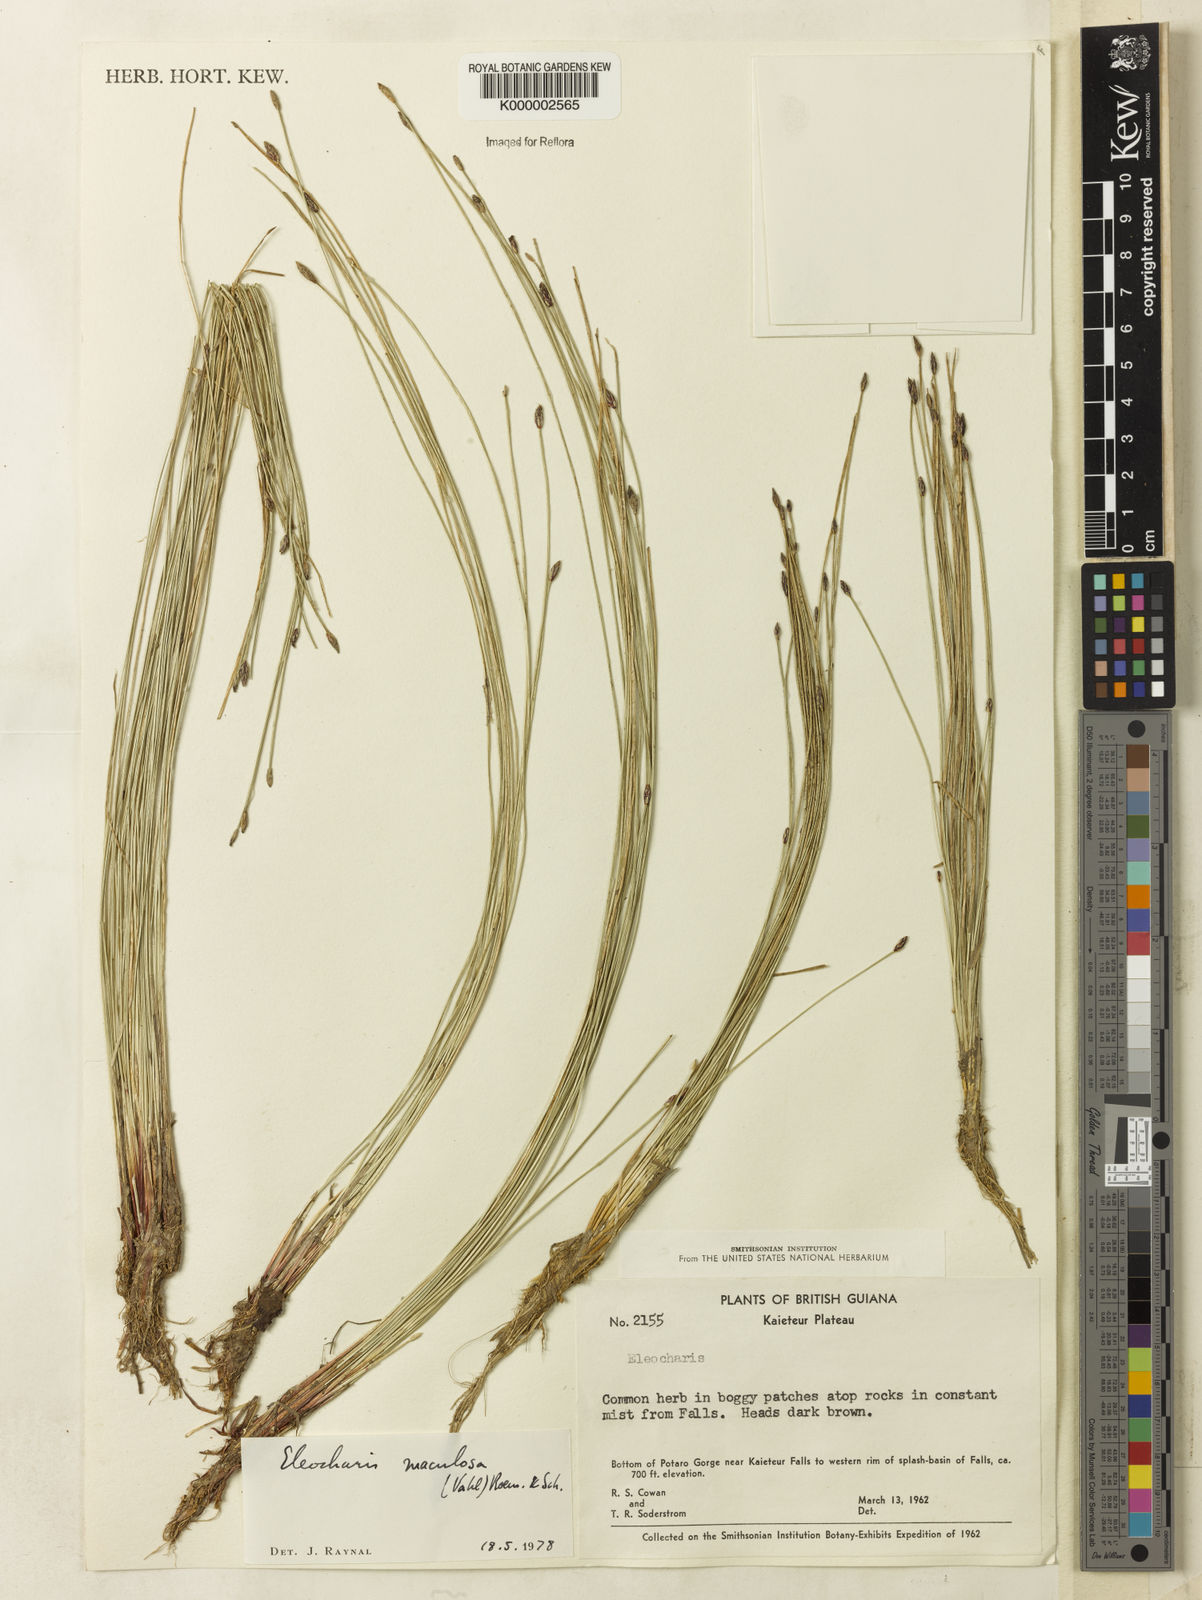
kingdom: Plantae
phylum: Tracheophyta
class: Liliopsida
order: Poales
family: Cyperaceae
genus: Eleocharis
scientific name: Eleocharis maculosa
